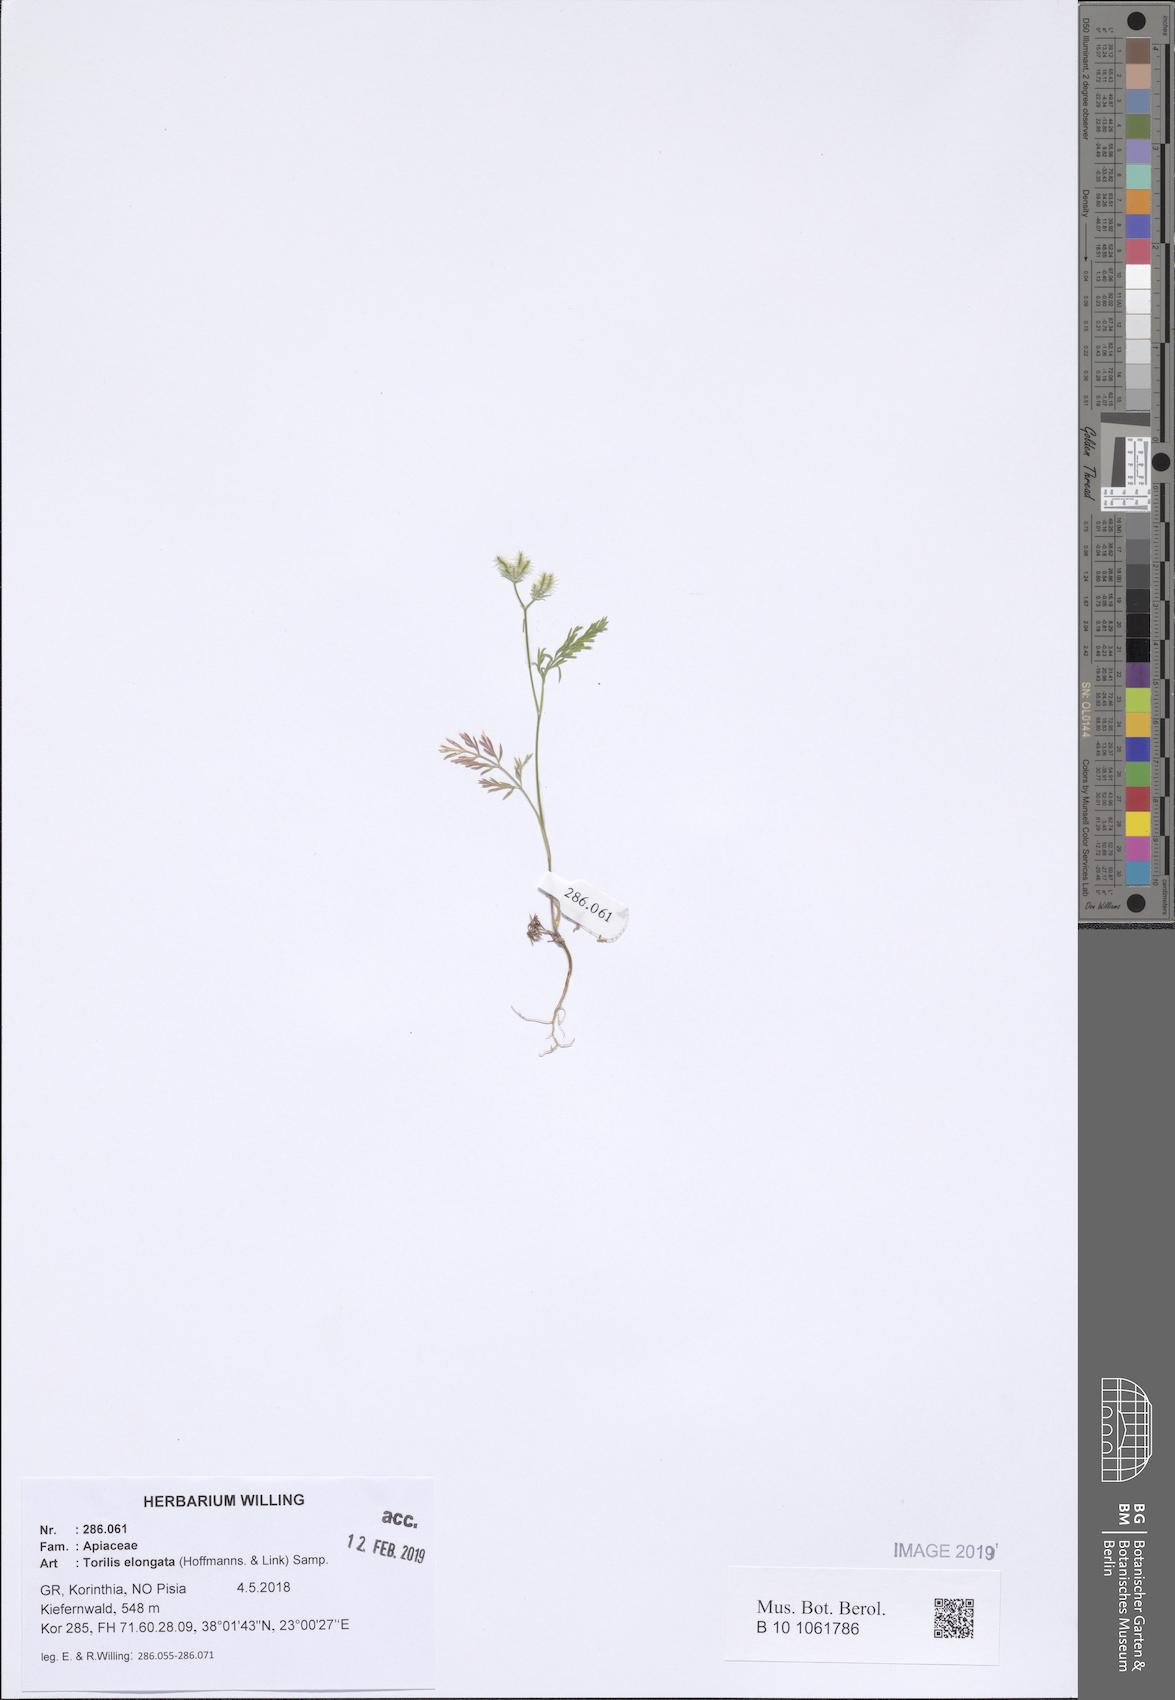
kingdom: Plantae
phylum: Tracheophyta
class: Magnoliopsida
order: Apiales
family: Apiaceae
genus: Torilis
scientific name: Torilis elongata
